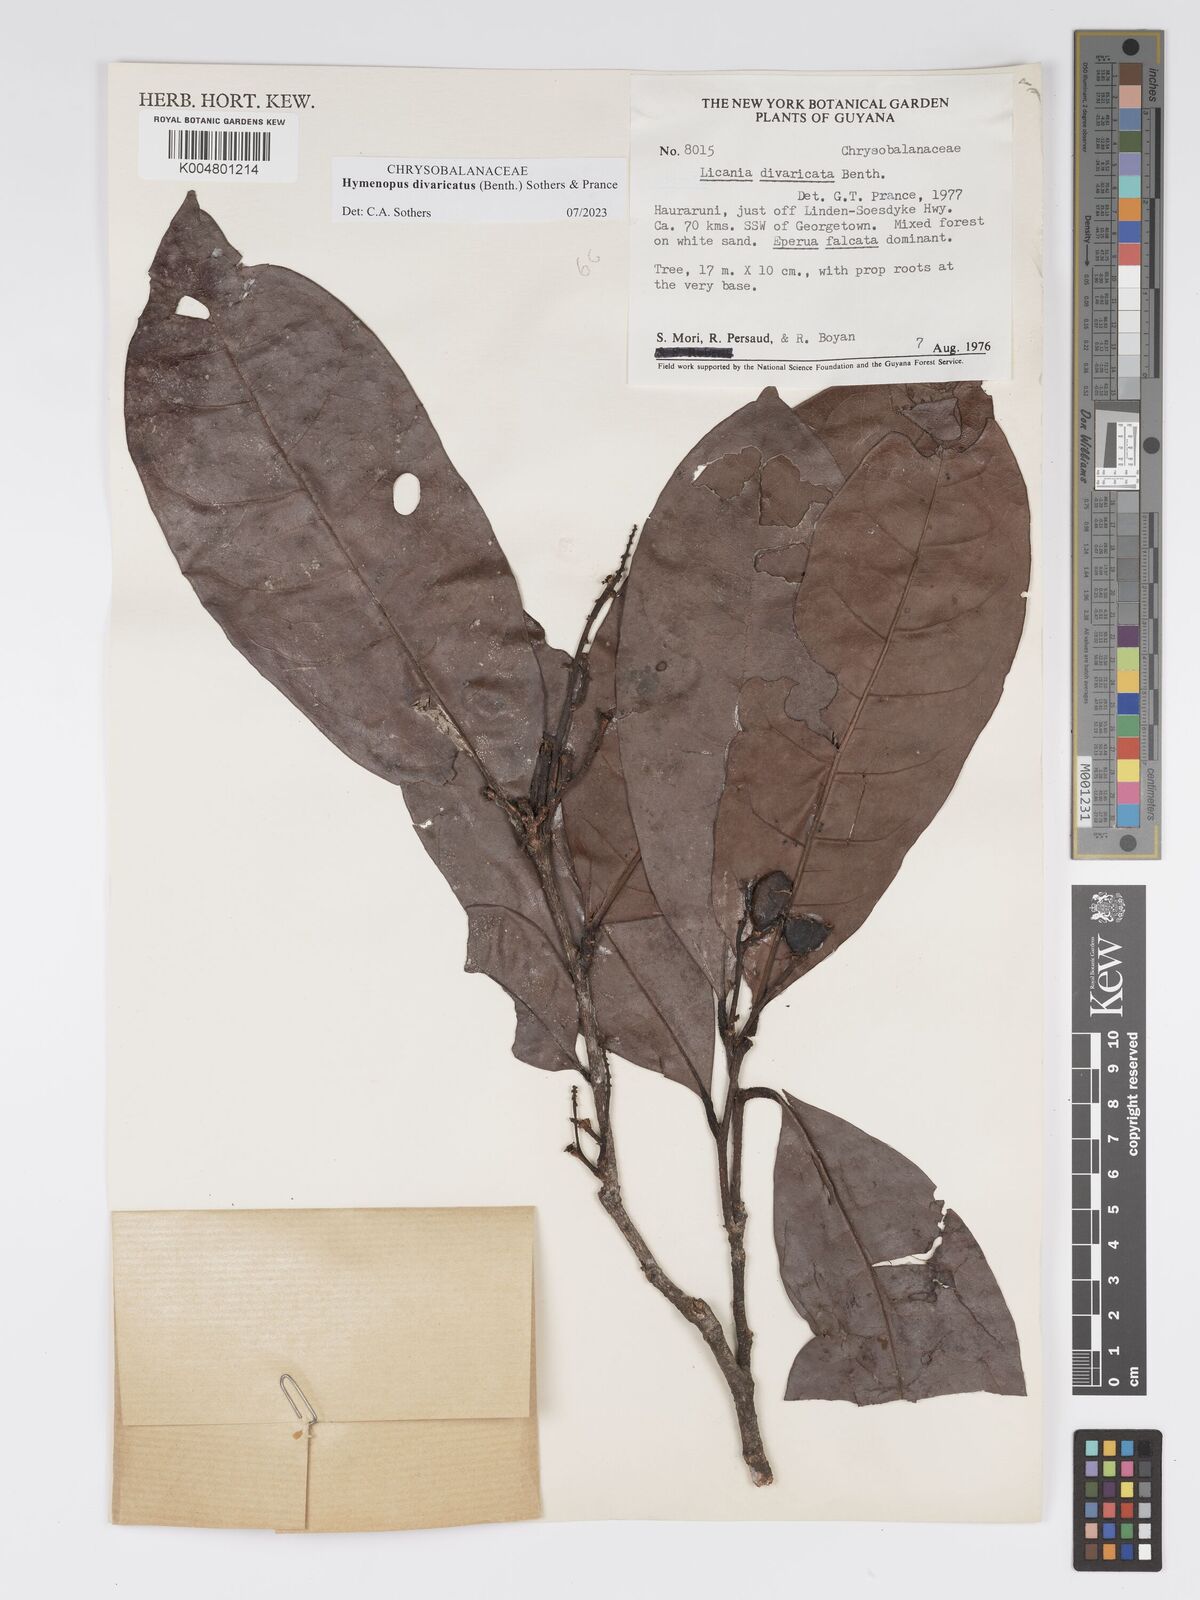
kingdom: Plantae
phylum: Tracheophyta
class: Magnoliopsida
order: Malpighiales
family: Chrysobalanaceae
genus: Hymenopus
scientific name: Hymenopus divaricatus
